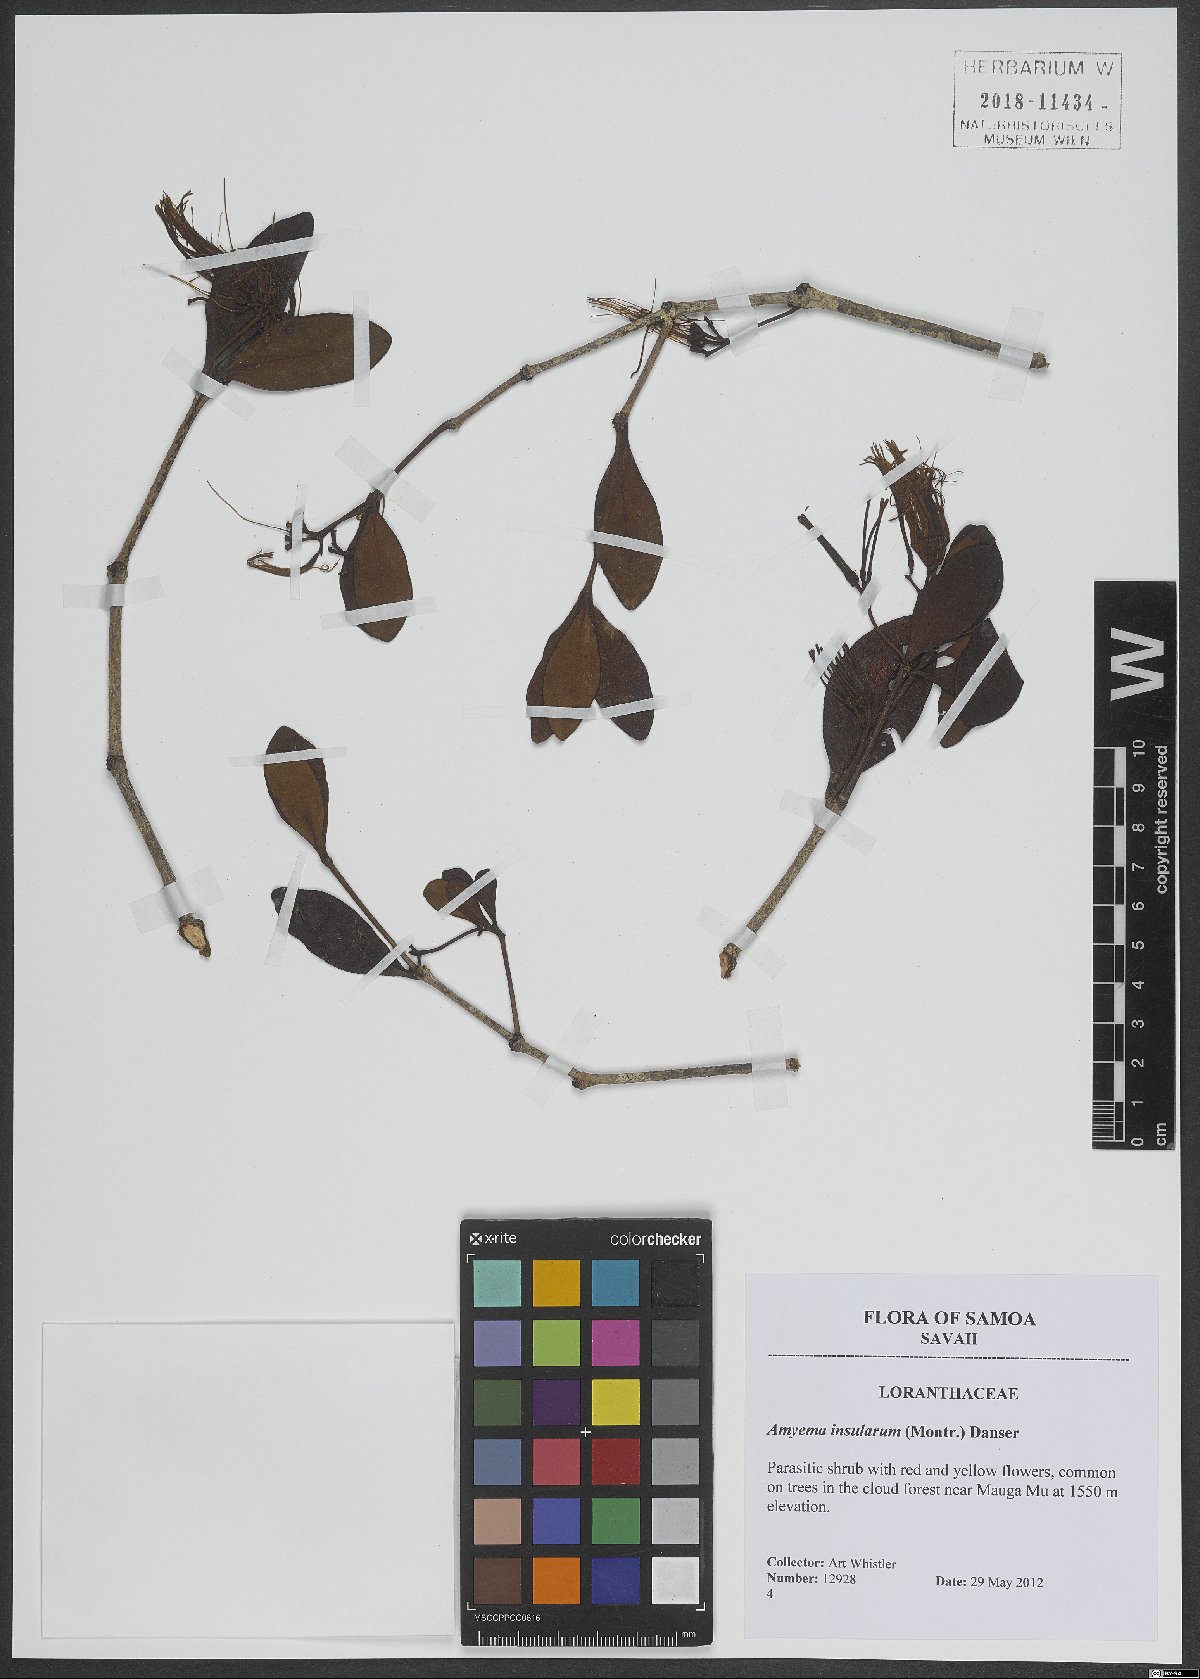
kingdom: Plantae
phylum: Tracheophyta
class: Magnoliopsida
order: Santalales
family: Loranthaceae
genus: Decaisnina
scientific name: Decaisnina forsteriana
